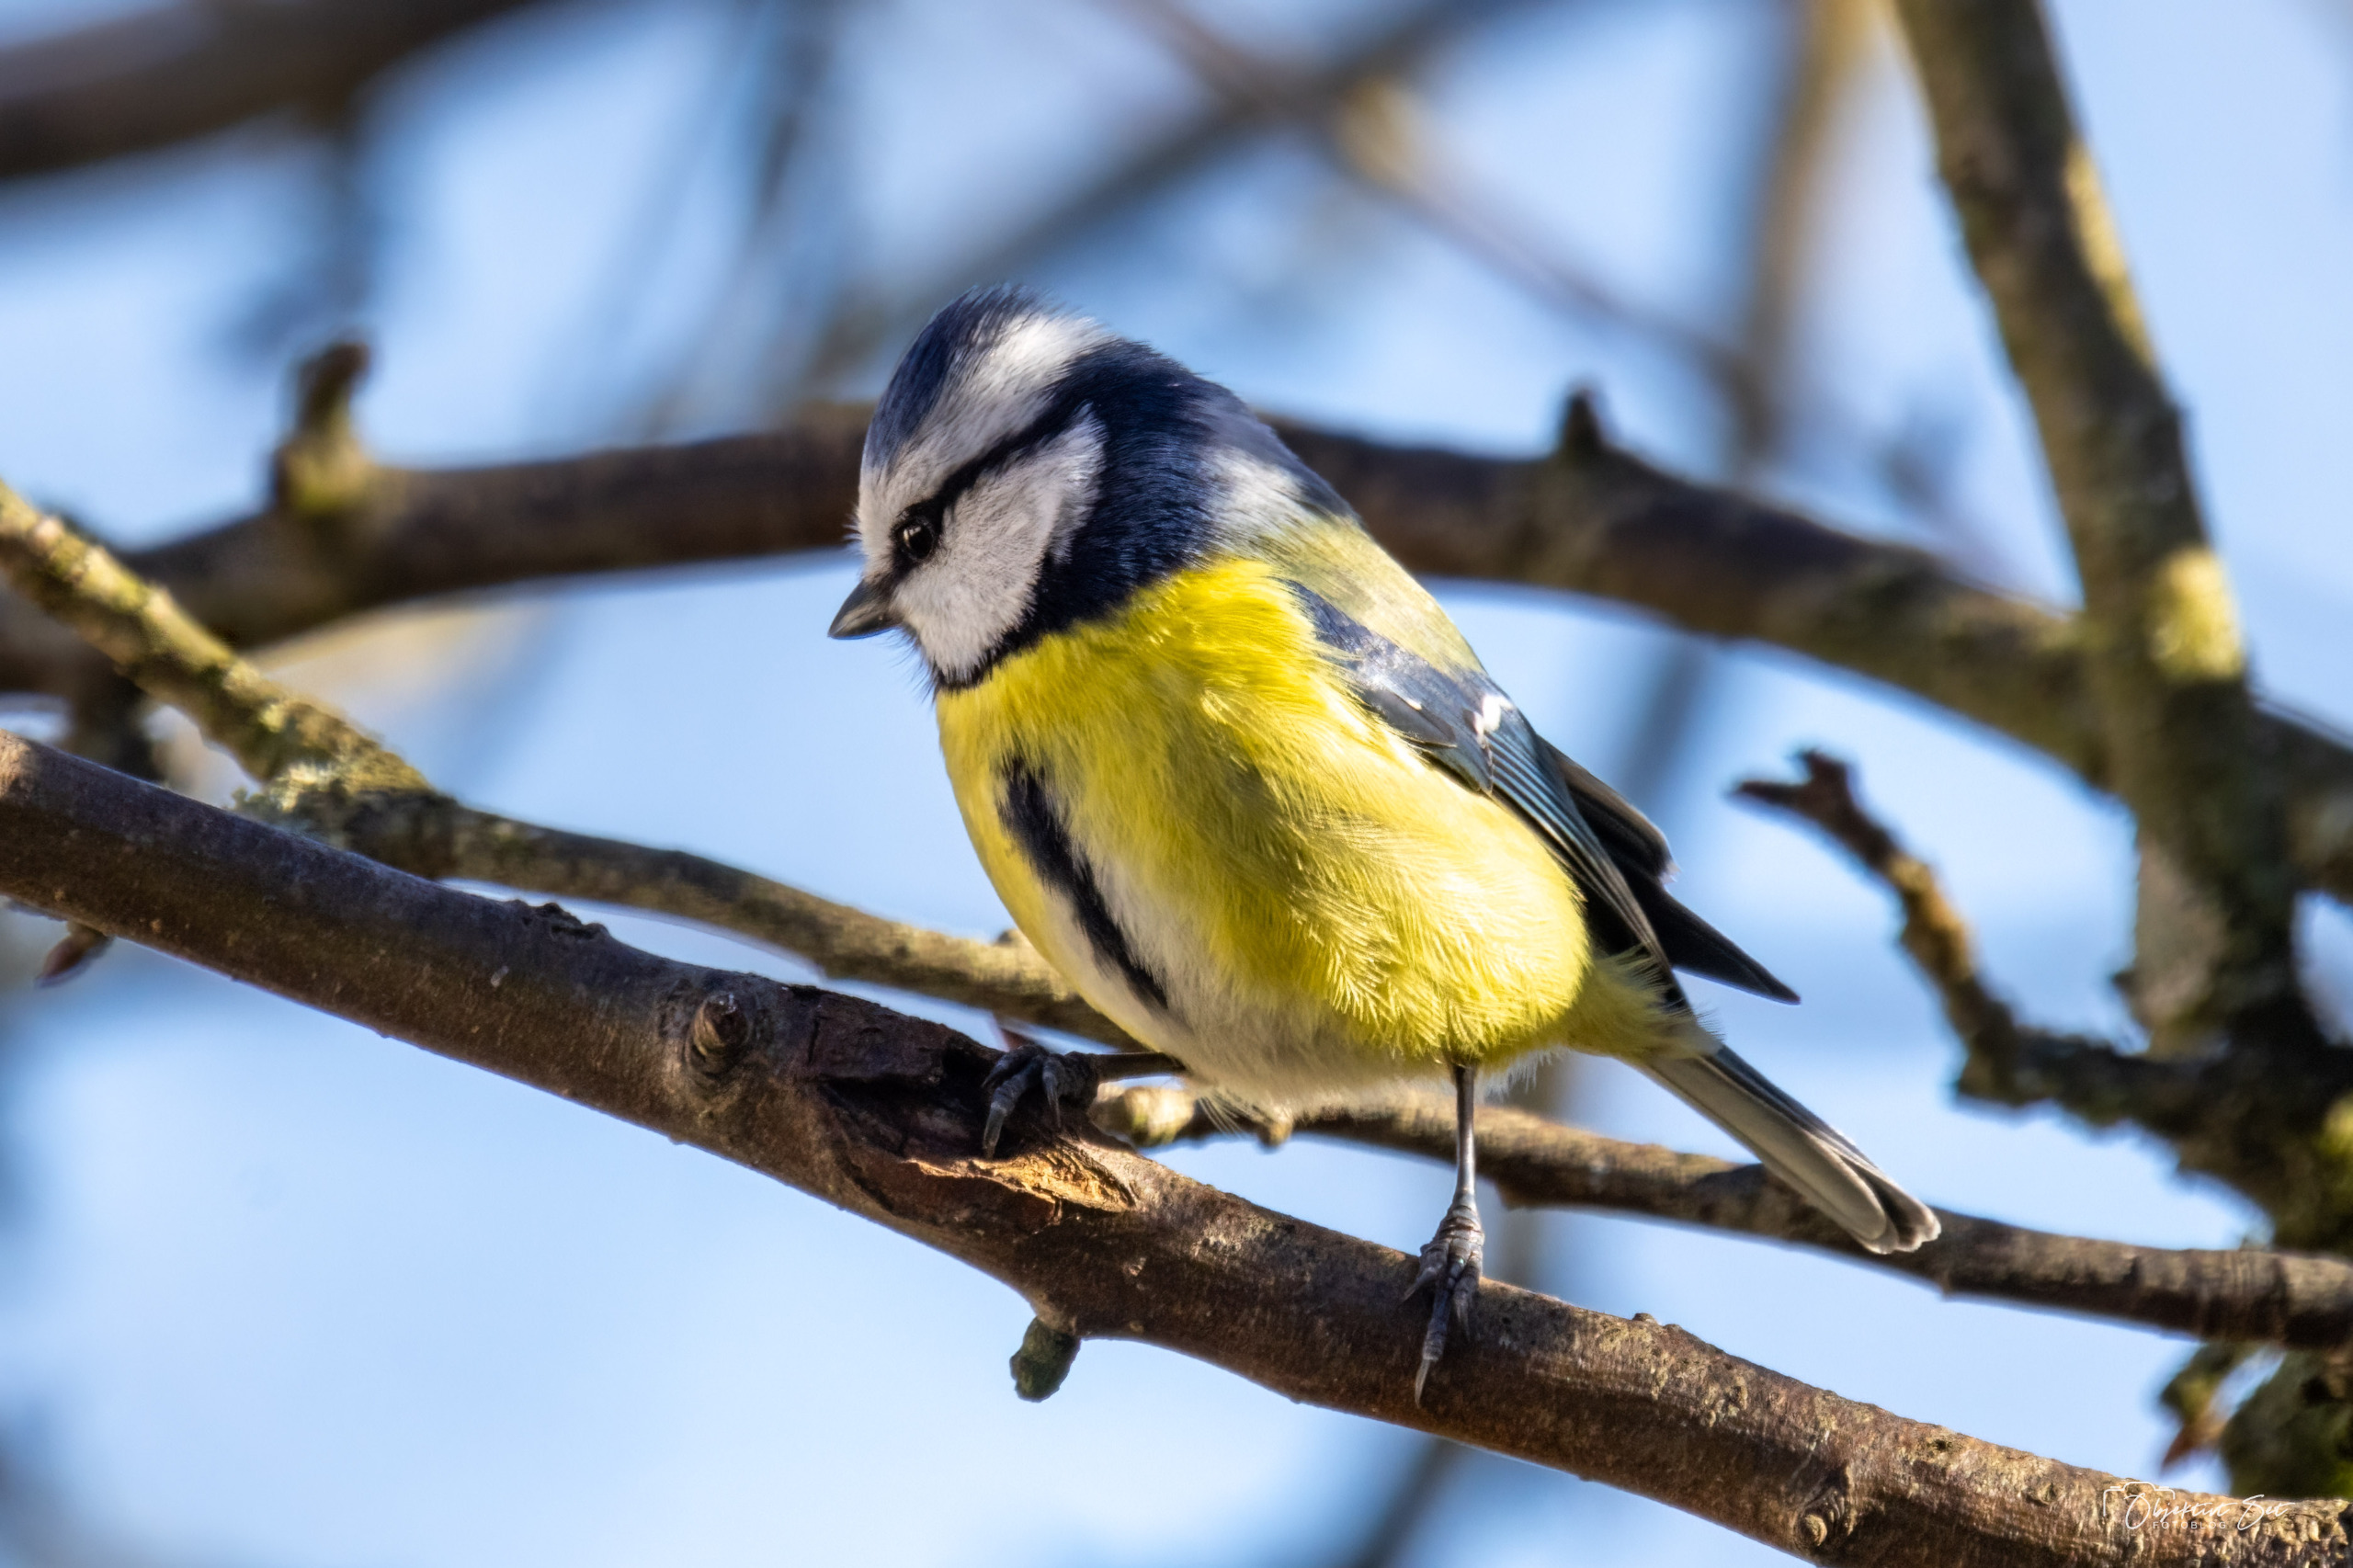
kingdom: Animalia
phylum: Chordata
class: Aves
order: Passeriformes
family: Paridae
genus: Cyanistes
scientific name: Cyanistes caeruleus
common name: Blåmejse
